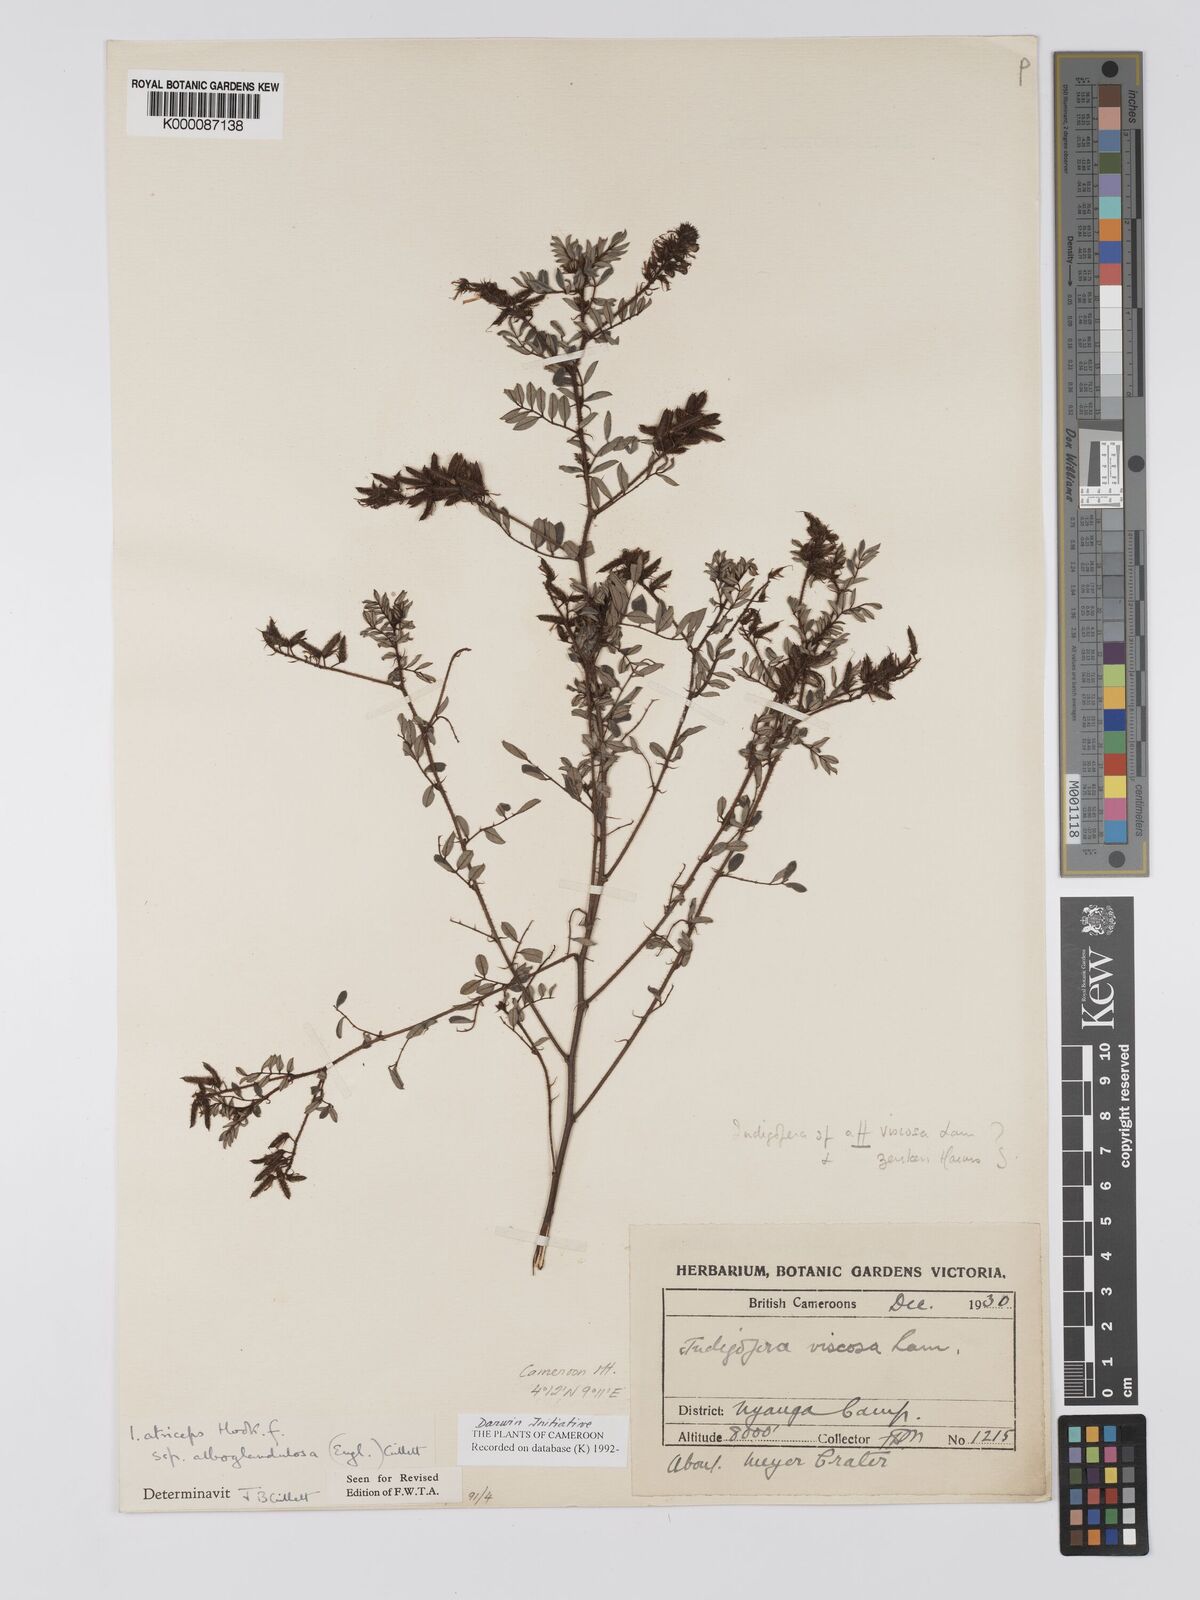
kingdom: Plantae
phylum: Tracheophyta
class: Magnoliopsida
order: Fabales
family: Fabaceae
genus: Indigofera
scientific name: Indigofera atriceps
